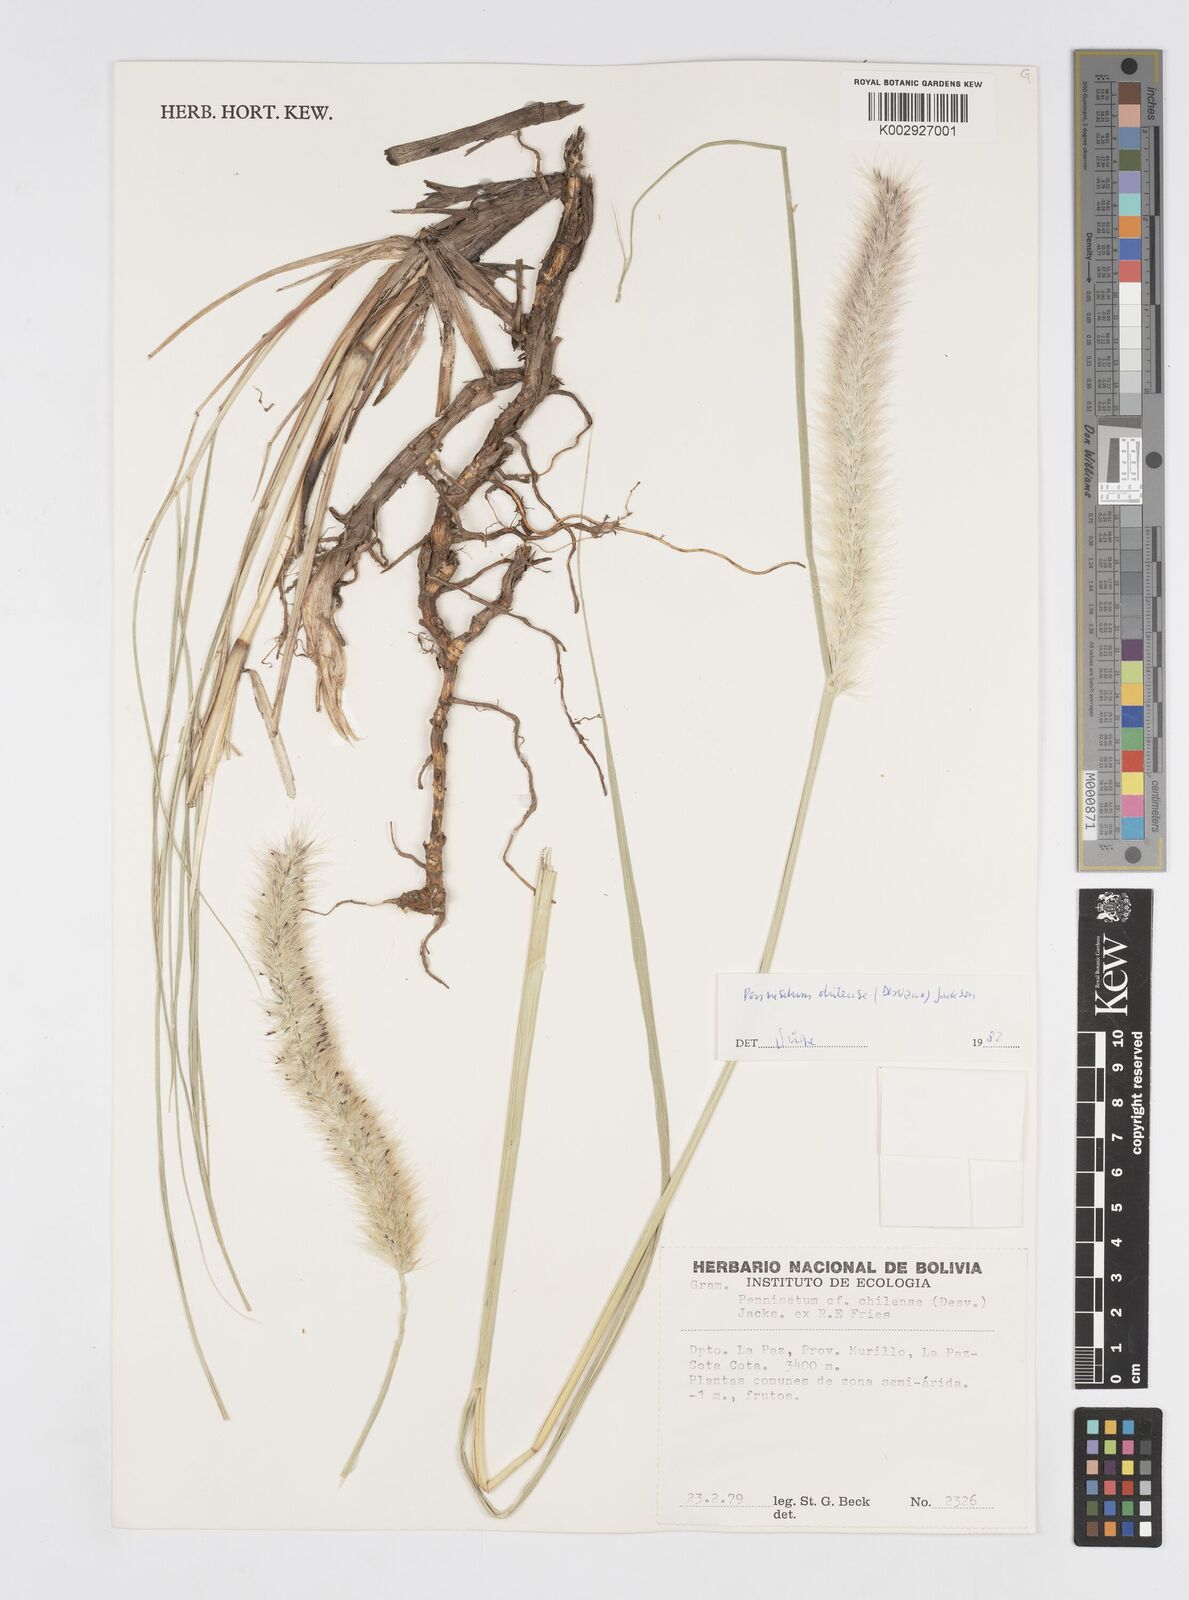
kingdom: Plantae
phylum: Tracheophyta
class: Liliopsida
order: Poales
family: Poaceae
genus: Cenchrus
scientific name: Cenchrus chilensis
